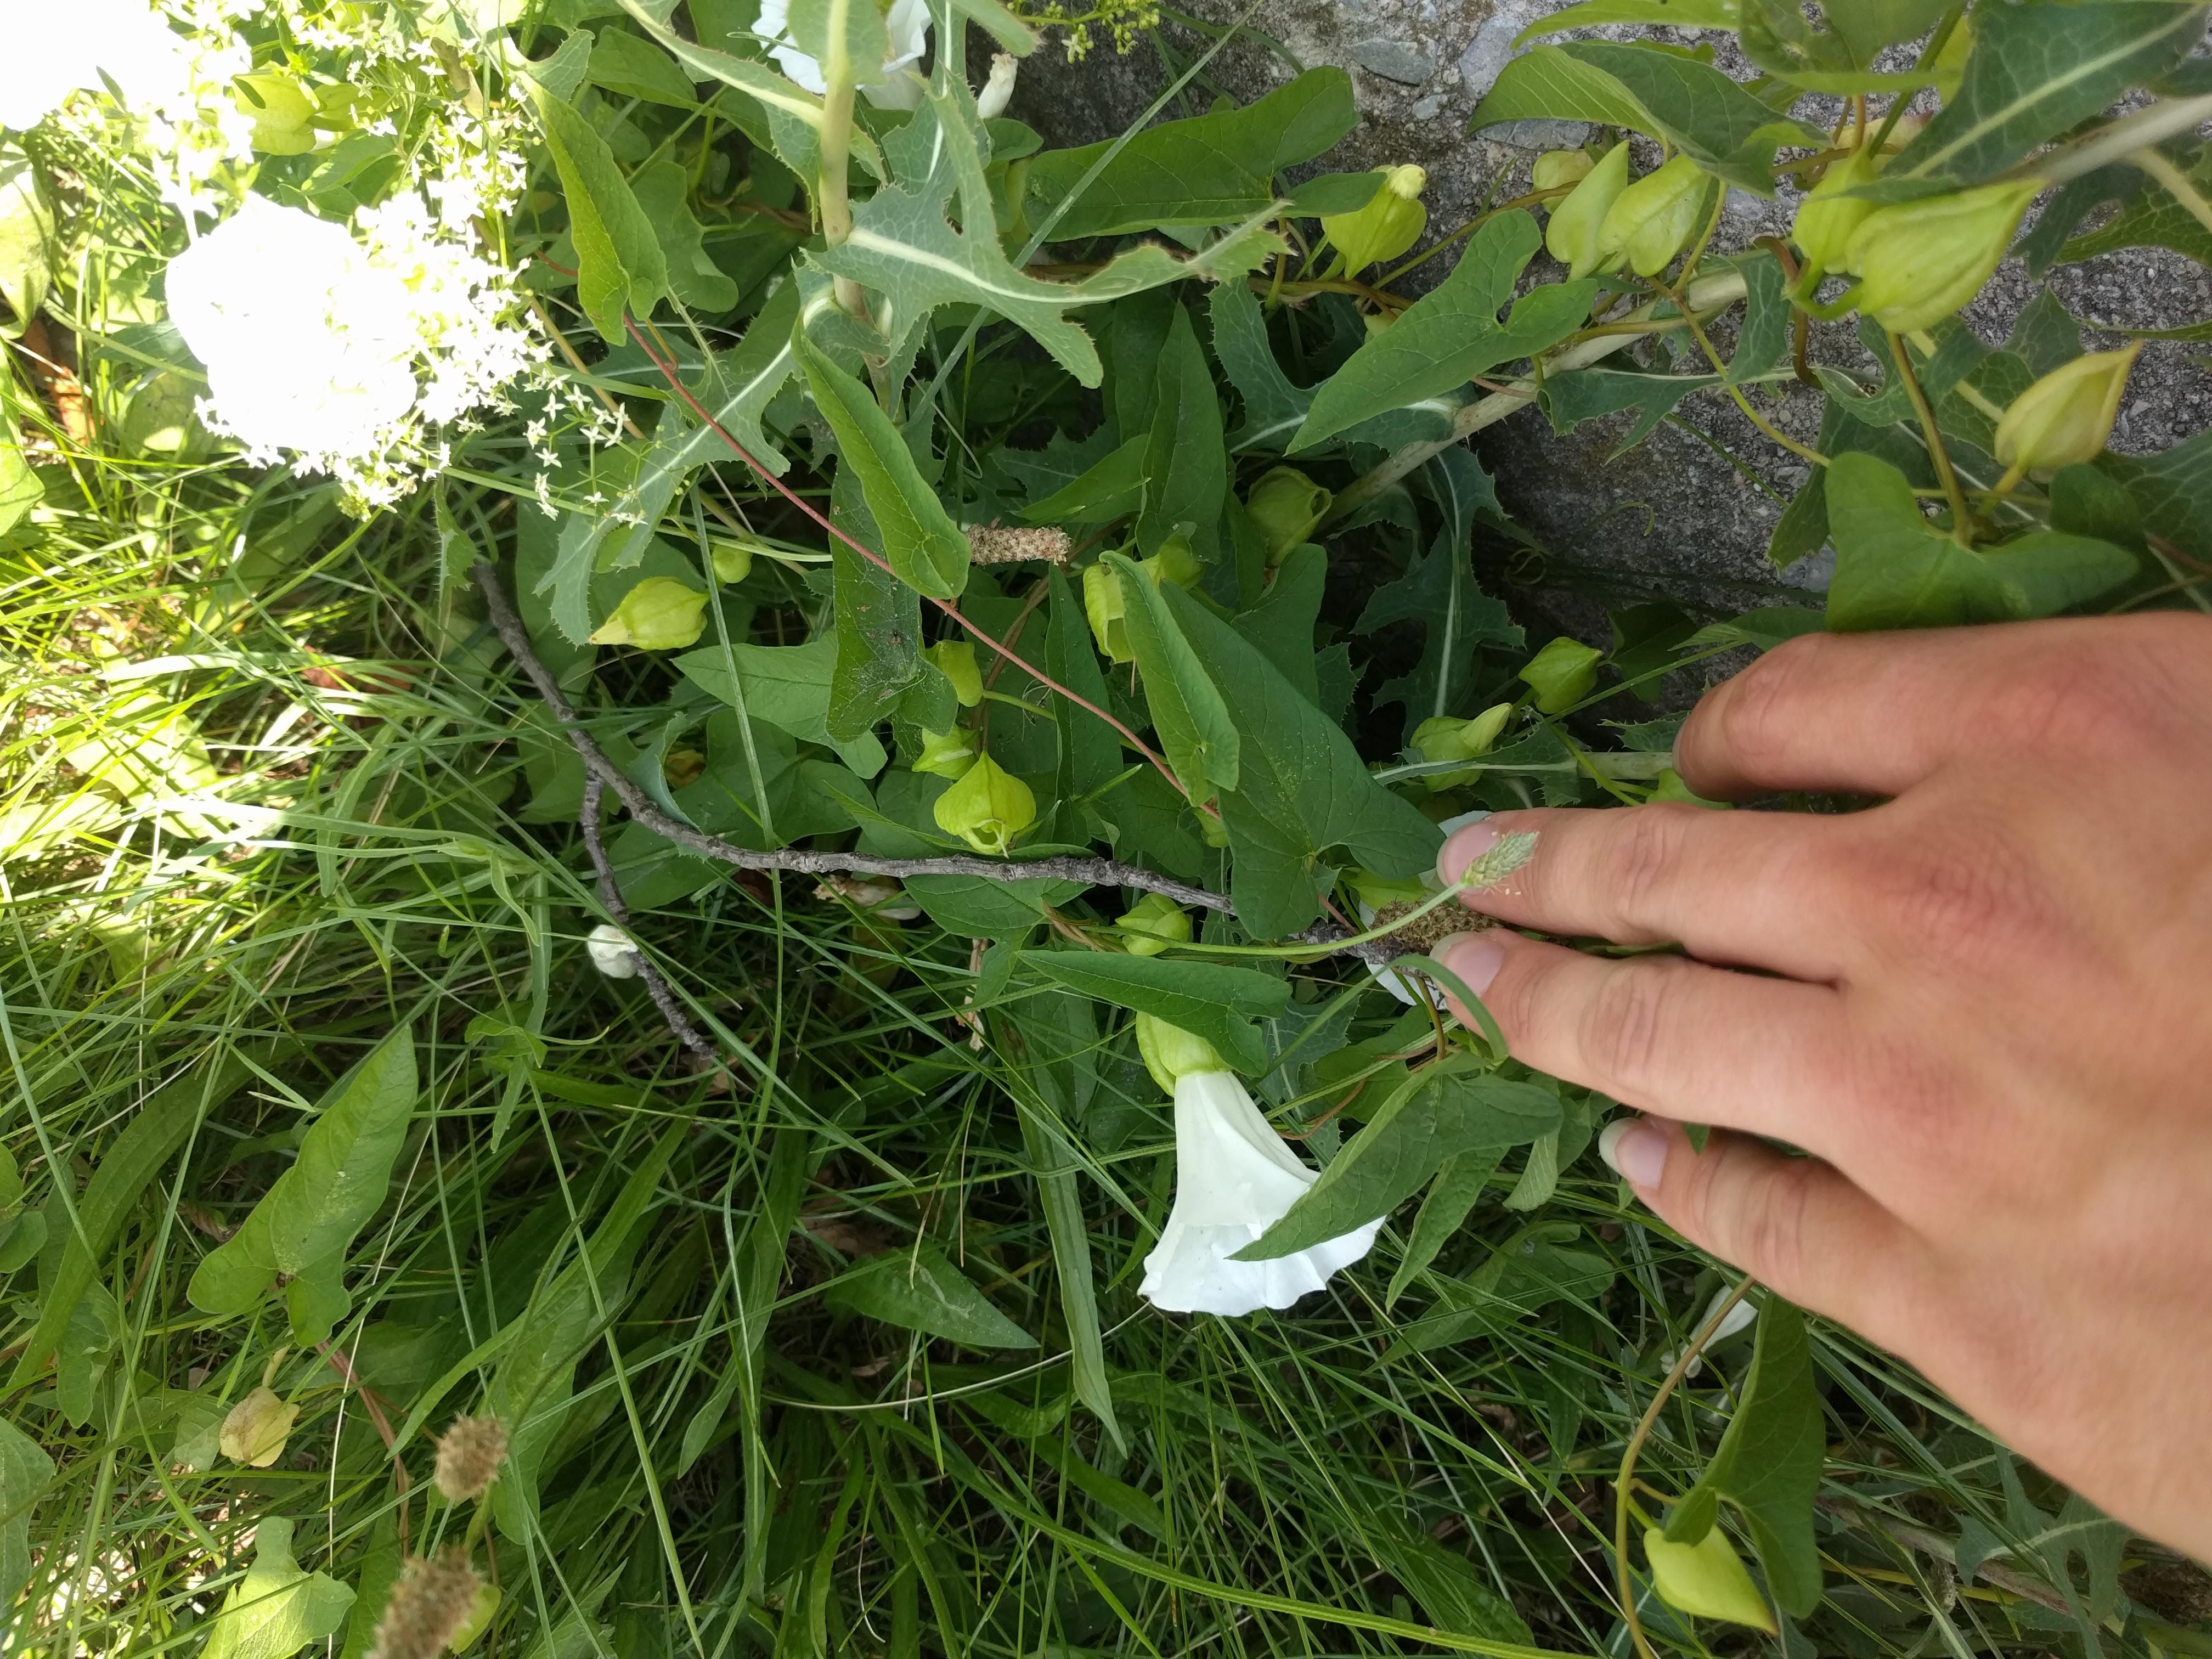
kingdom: Plantae
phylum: Tracheophyta
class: Magnoliopsida
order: Solanales
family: Convolvulaceae
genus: Calystegia
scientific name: Calystegia
